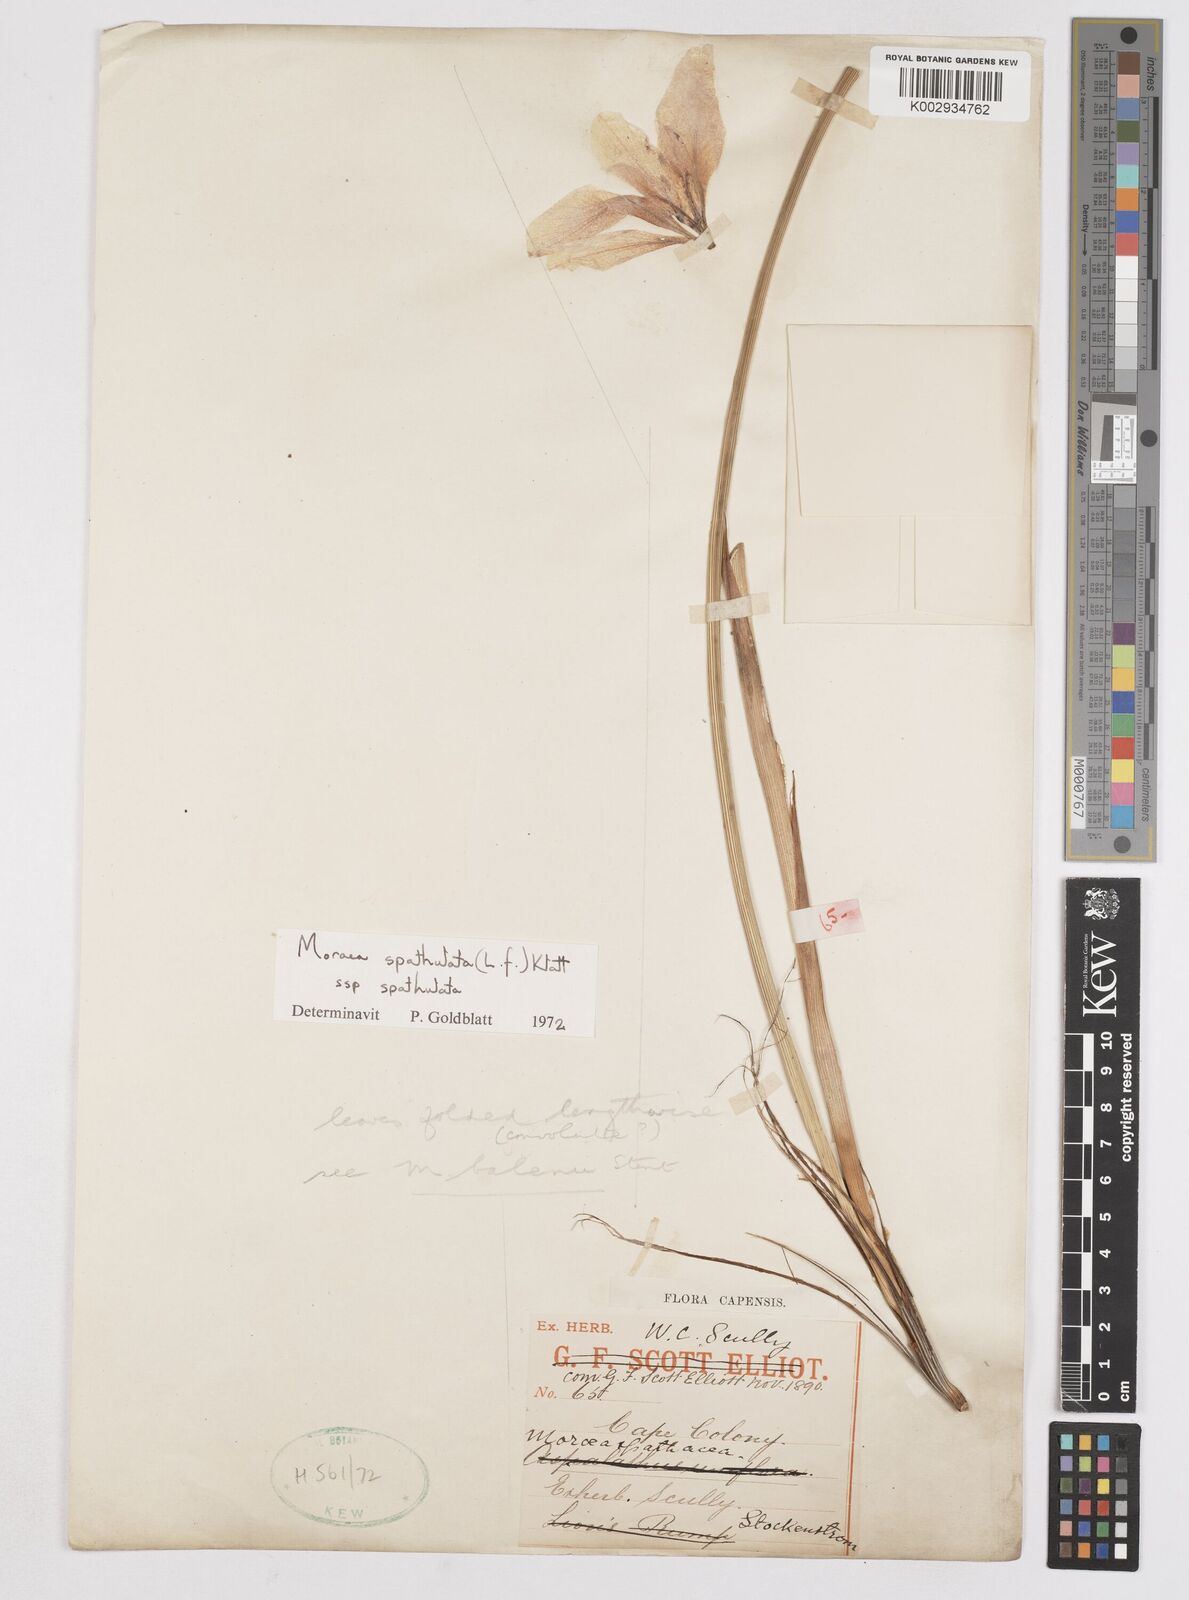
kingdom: Plantae
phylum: Tracheophyta
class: Liliopsida
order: Asparagales
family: Iridaceae
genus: Moraea
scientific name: Moraea spathulata
